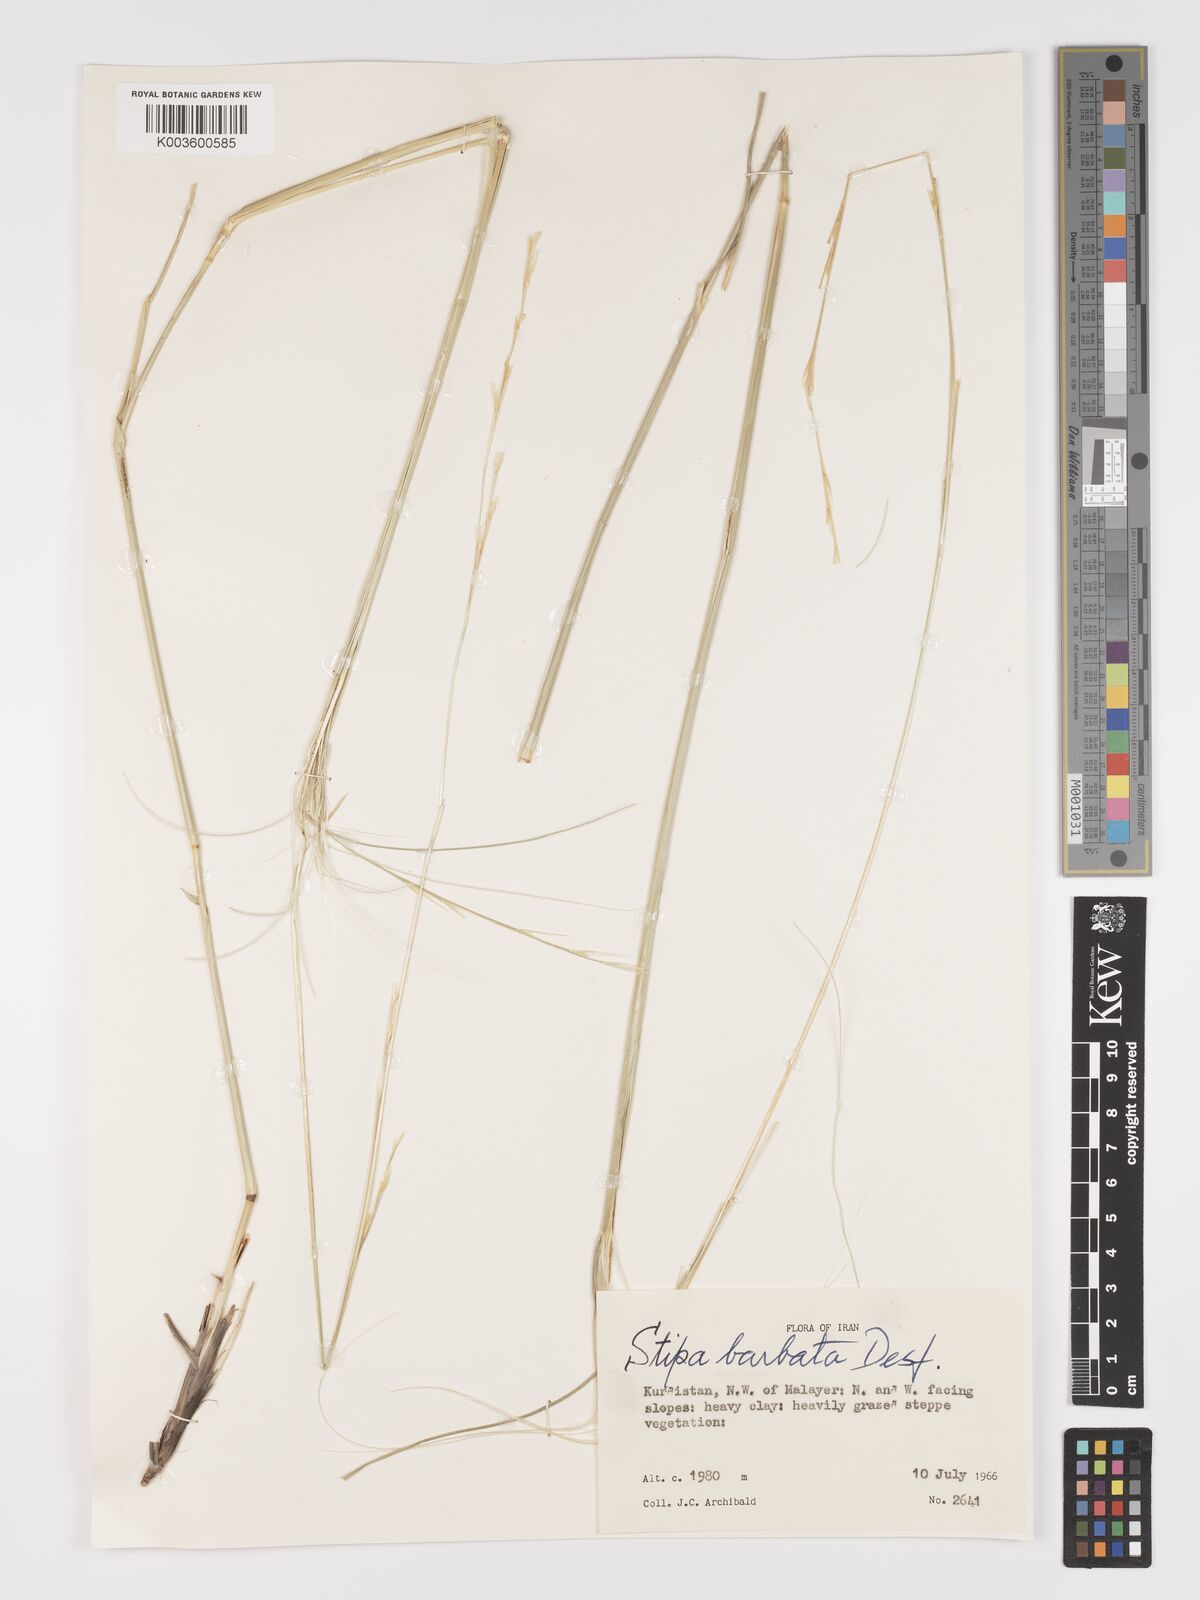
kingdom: Plantae
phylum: Tracheophyta
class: Liliopsida
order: Poales
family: Poaceae
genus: Stipa
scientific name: Stipa barbata
